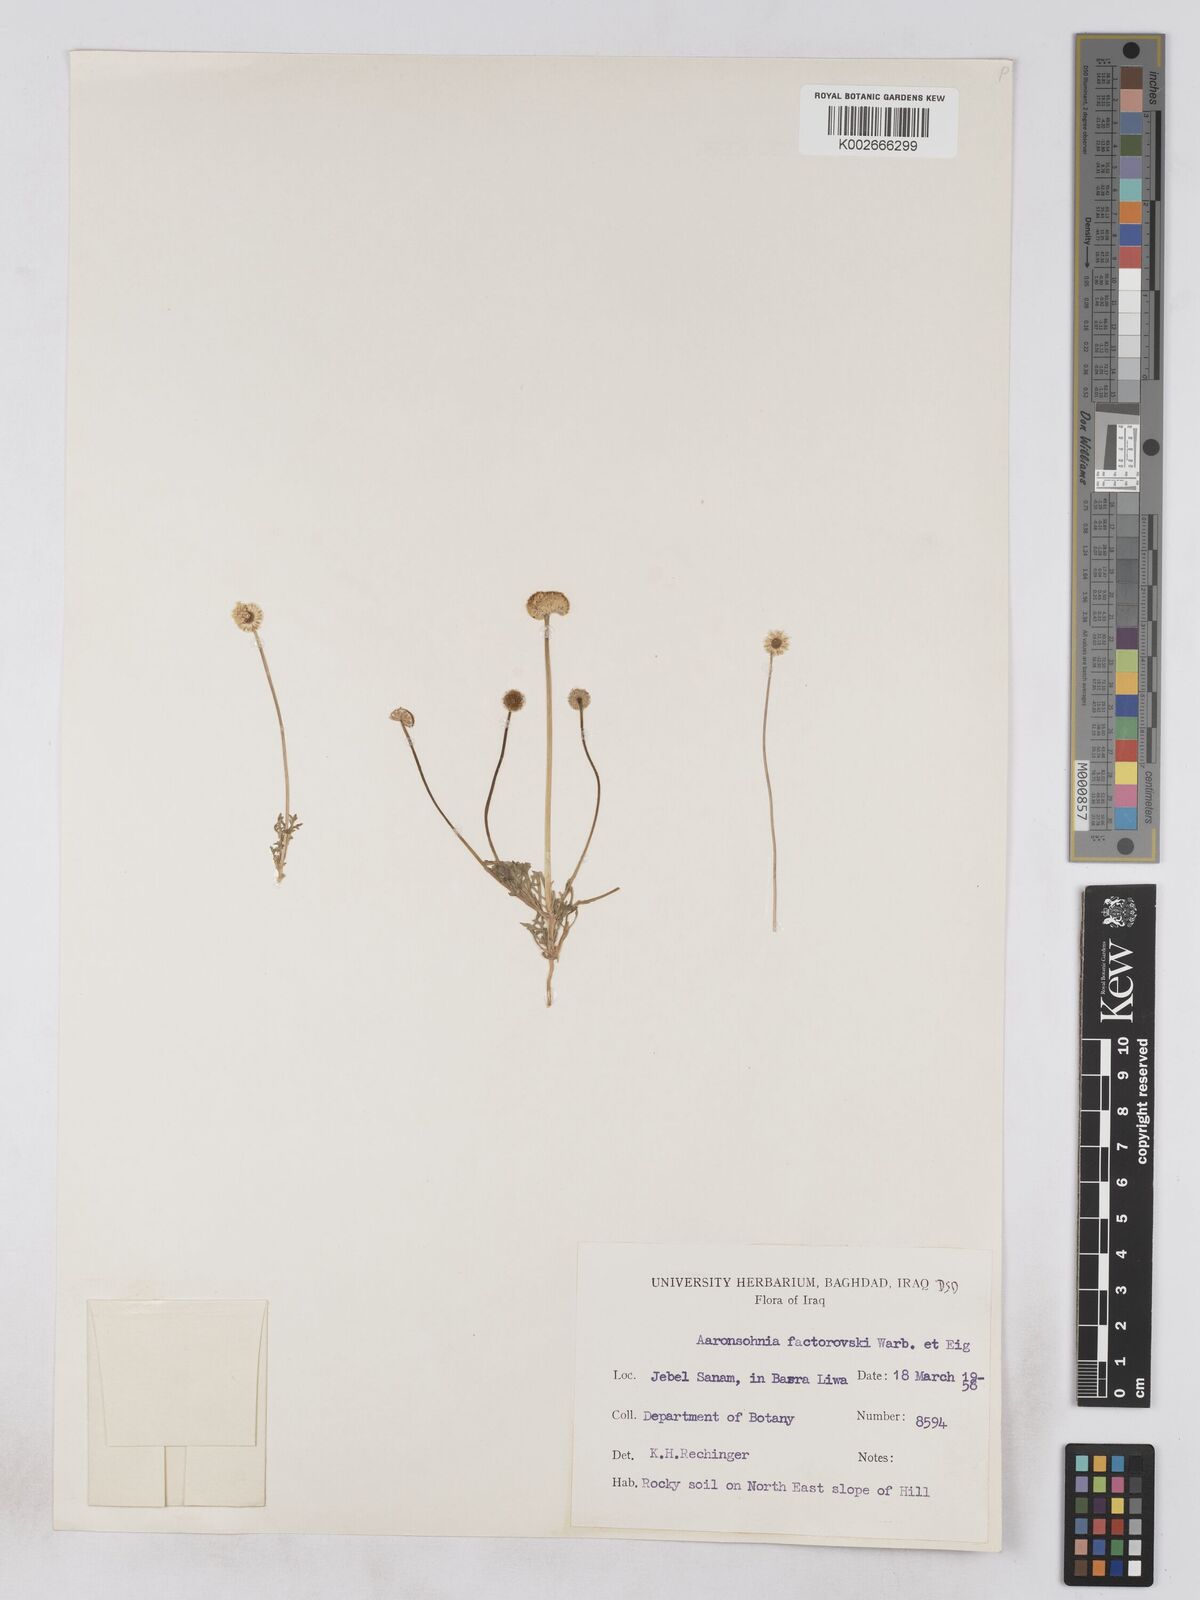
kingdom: Plantae
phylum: Tracheophyta
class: Magnoliopsida
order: Asterales
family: Asteraceae
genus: Otoglyphis
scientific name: Otoglyphis factorovskyi
